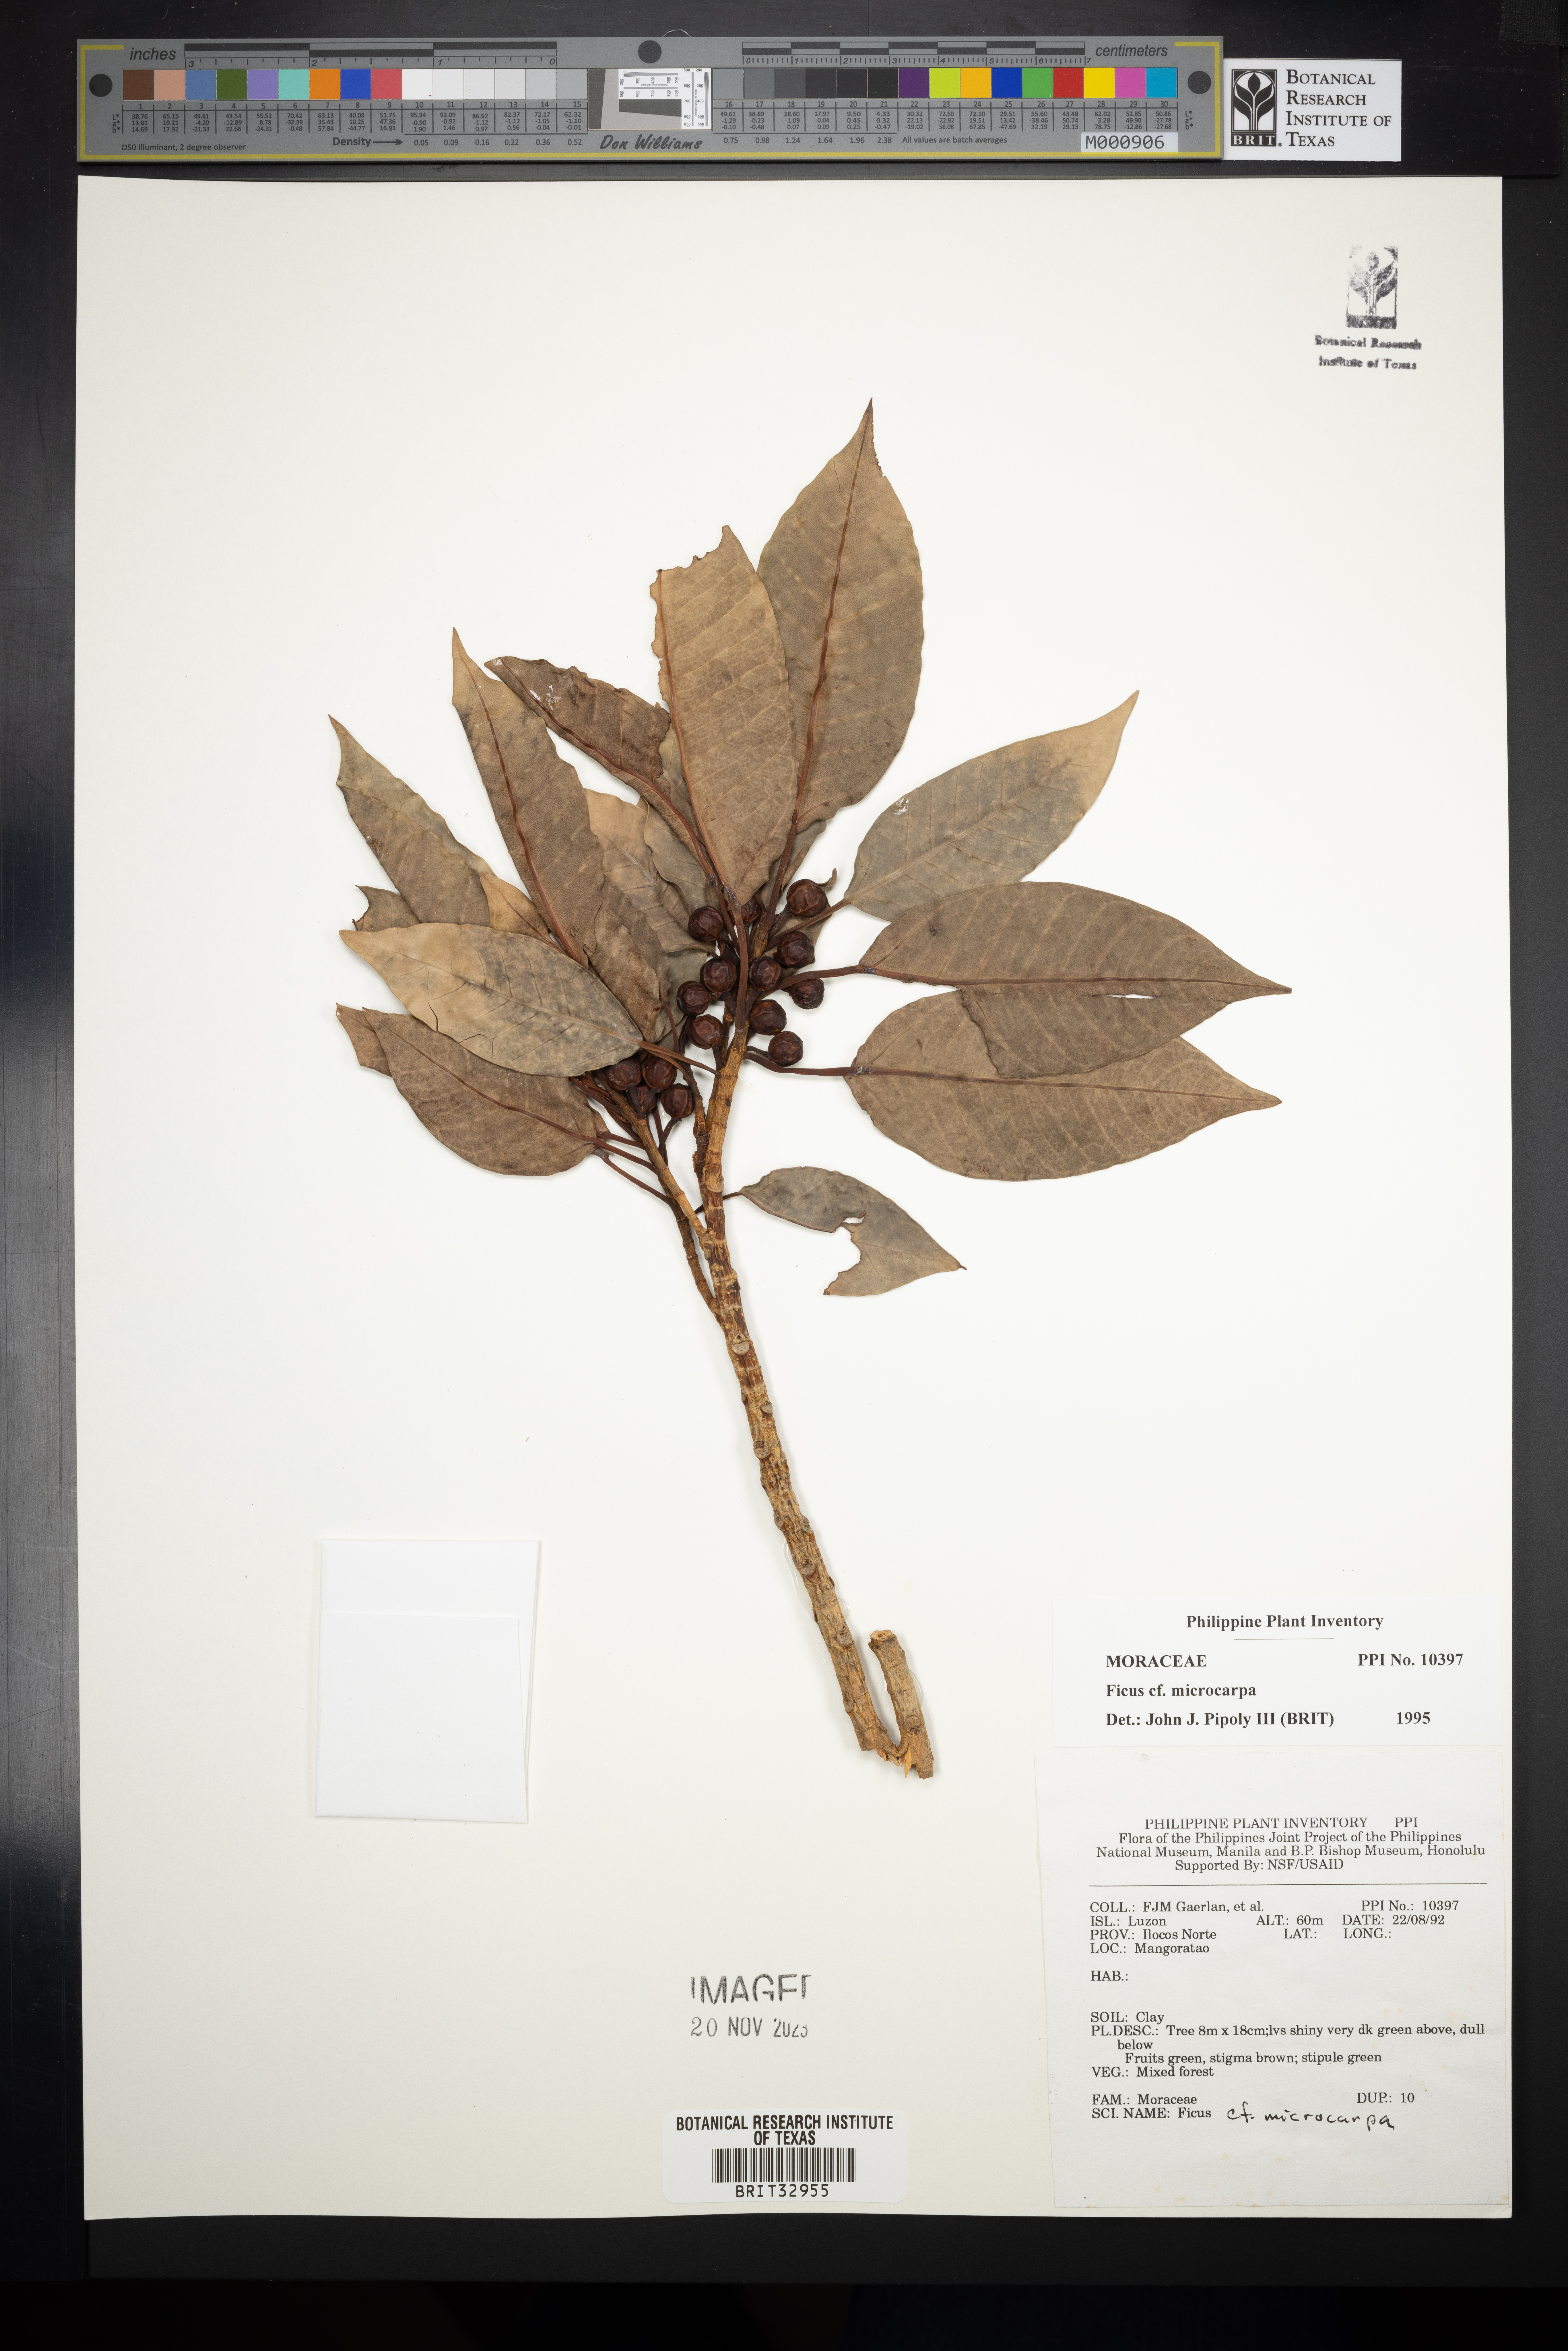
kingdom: Plantae
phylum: Tracheophyta
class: Magnoliopsida
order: Rosales
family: Moraceae
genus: Ficus
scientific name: Ficus microcarpa
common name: Chinese banyan
